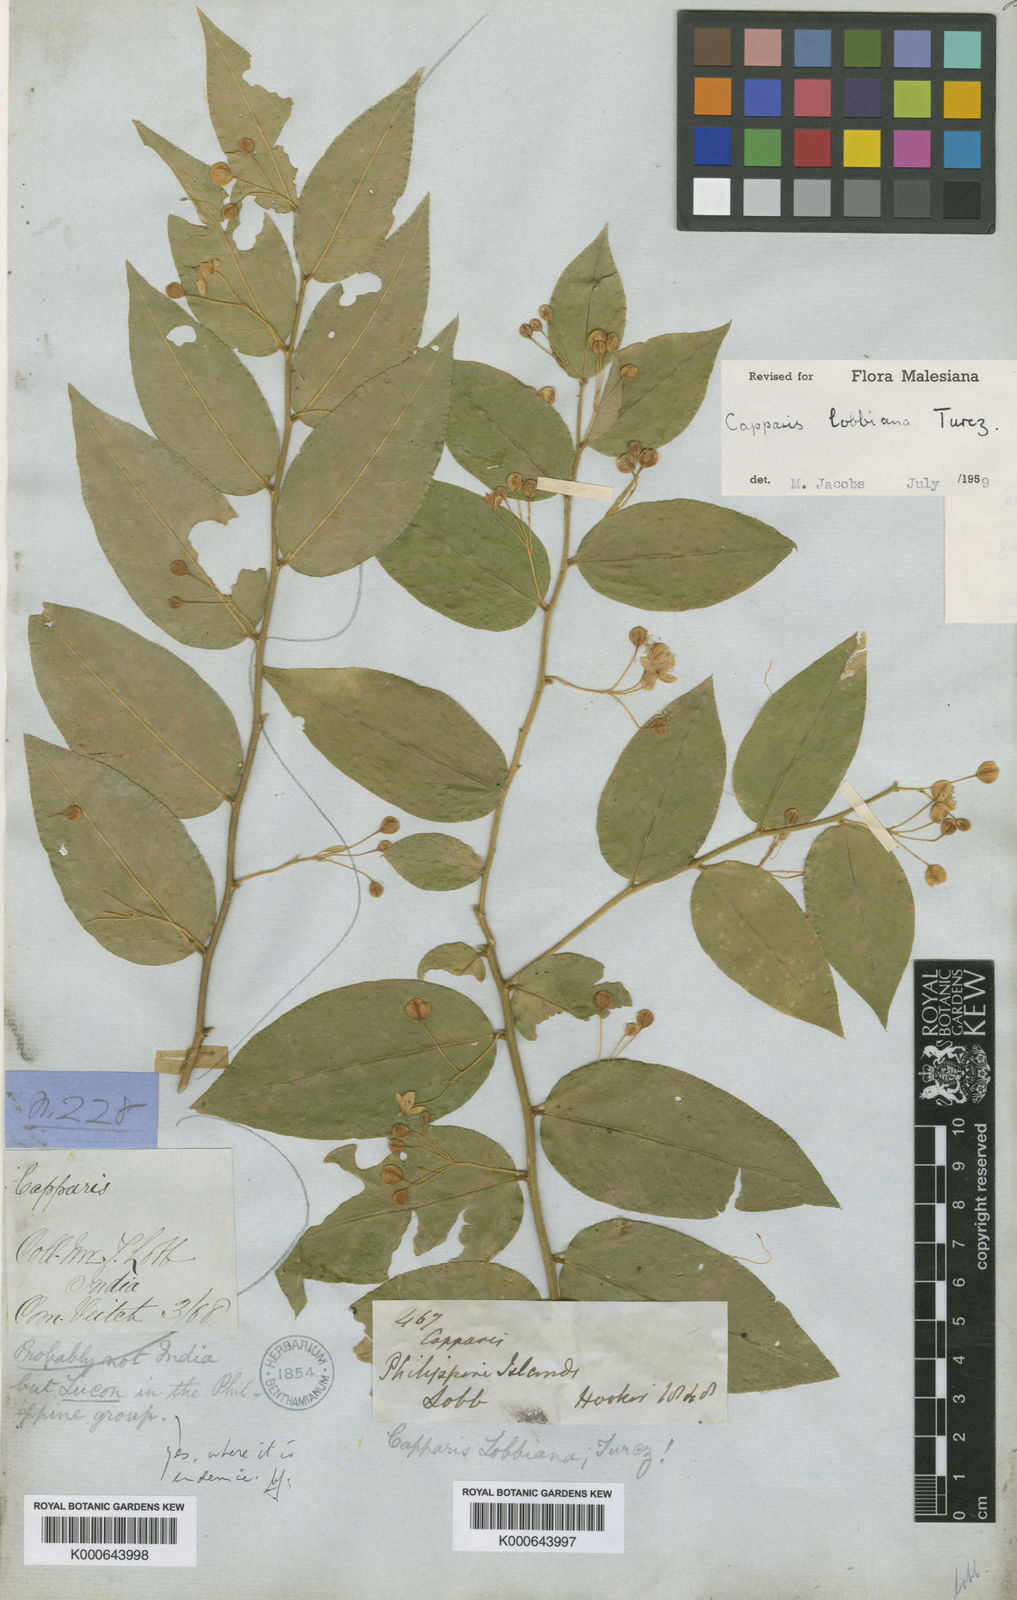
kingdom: Plantae
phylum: Tracheophyta
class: Magnoliopsida
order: Brassicales
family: Capparaceae
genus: Capparis
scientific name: Capparis lobbiana
